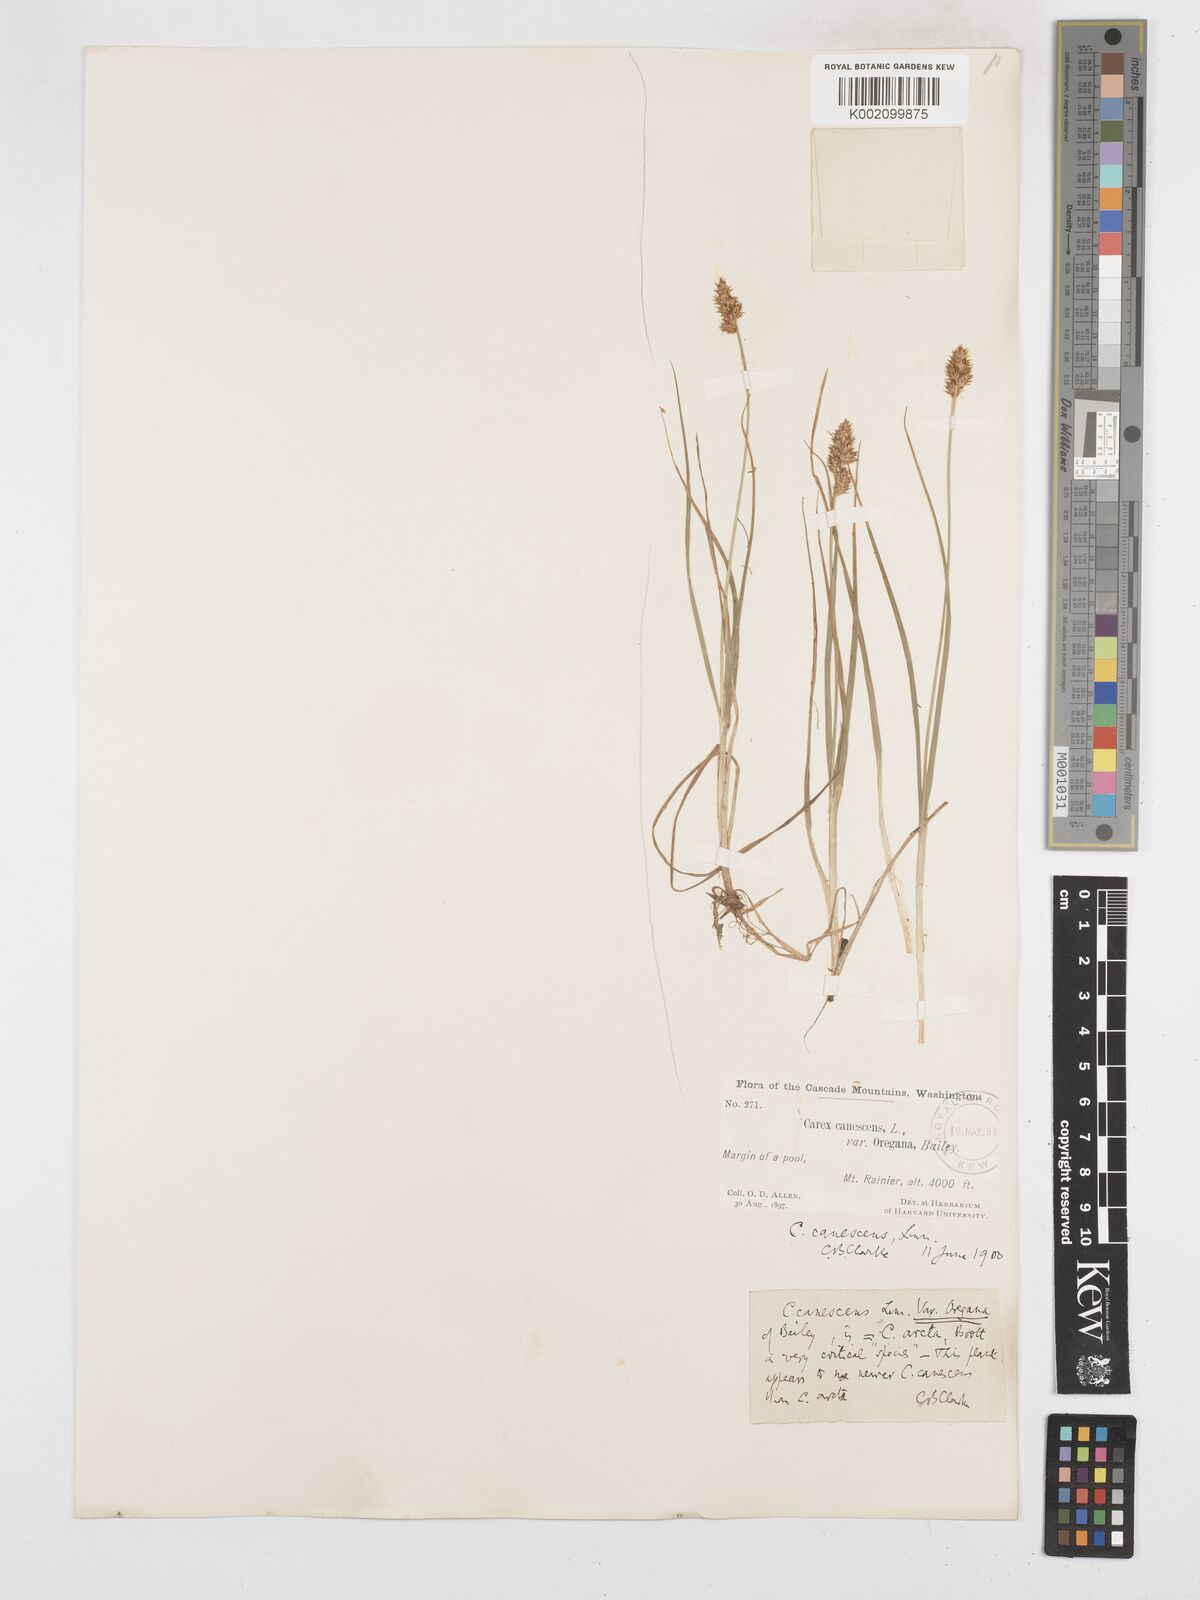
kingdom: Plantae
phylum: Tracheophyta
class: Liliopsida
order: Poales
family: Cyperaceae
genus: Carex
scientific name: Carex arcta
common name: Bear sedge
